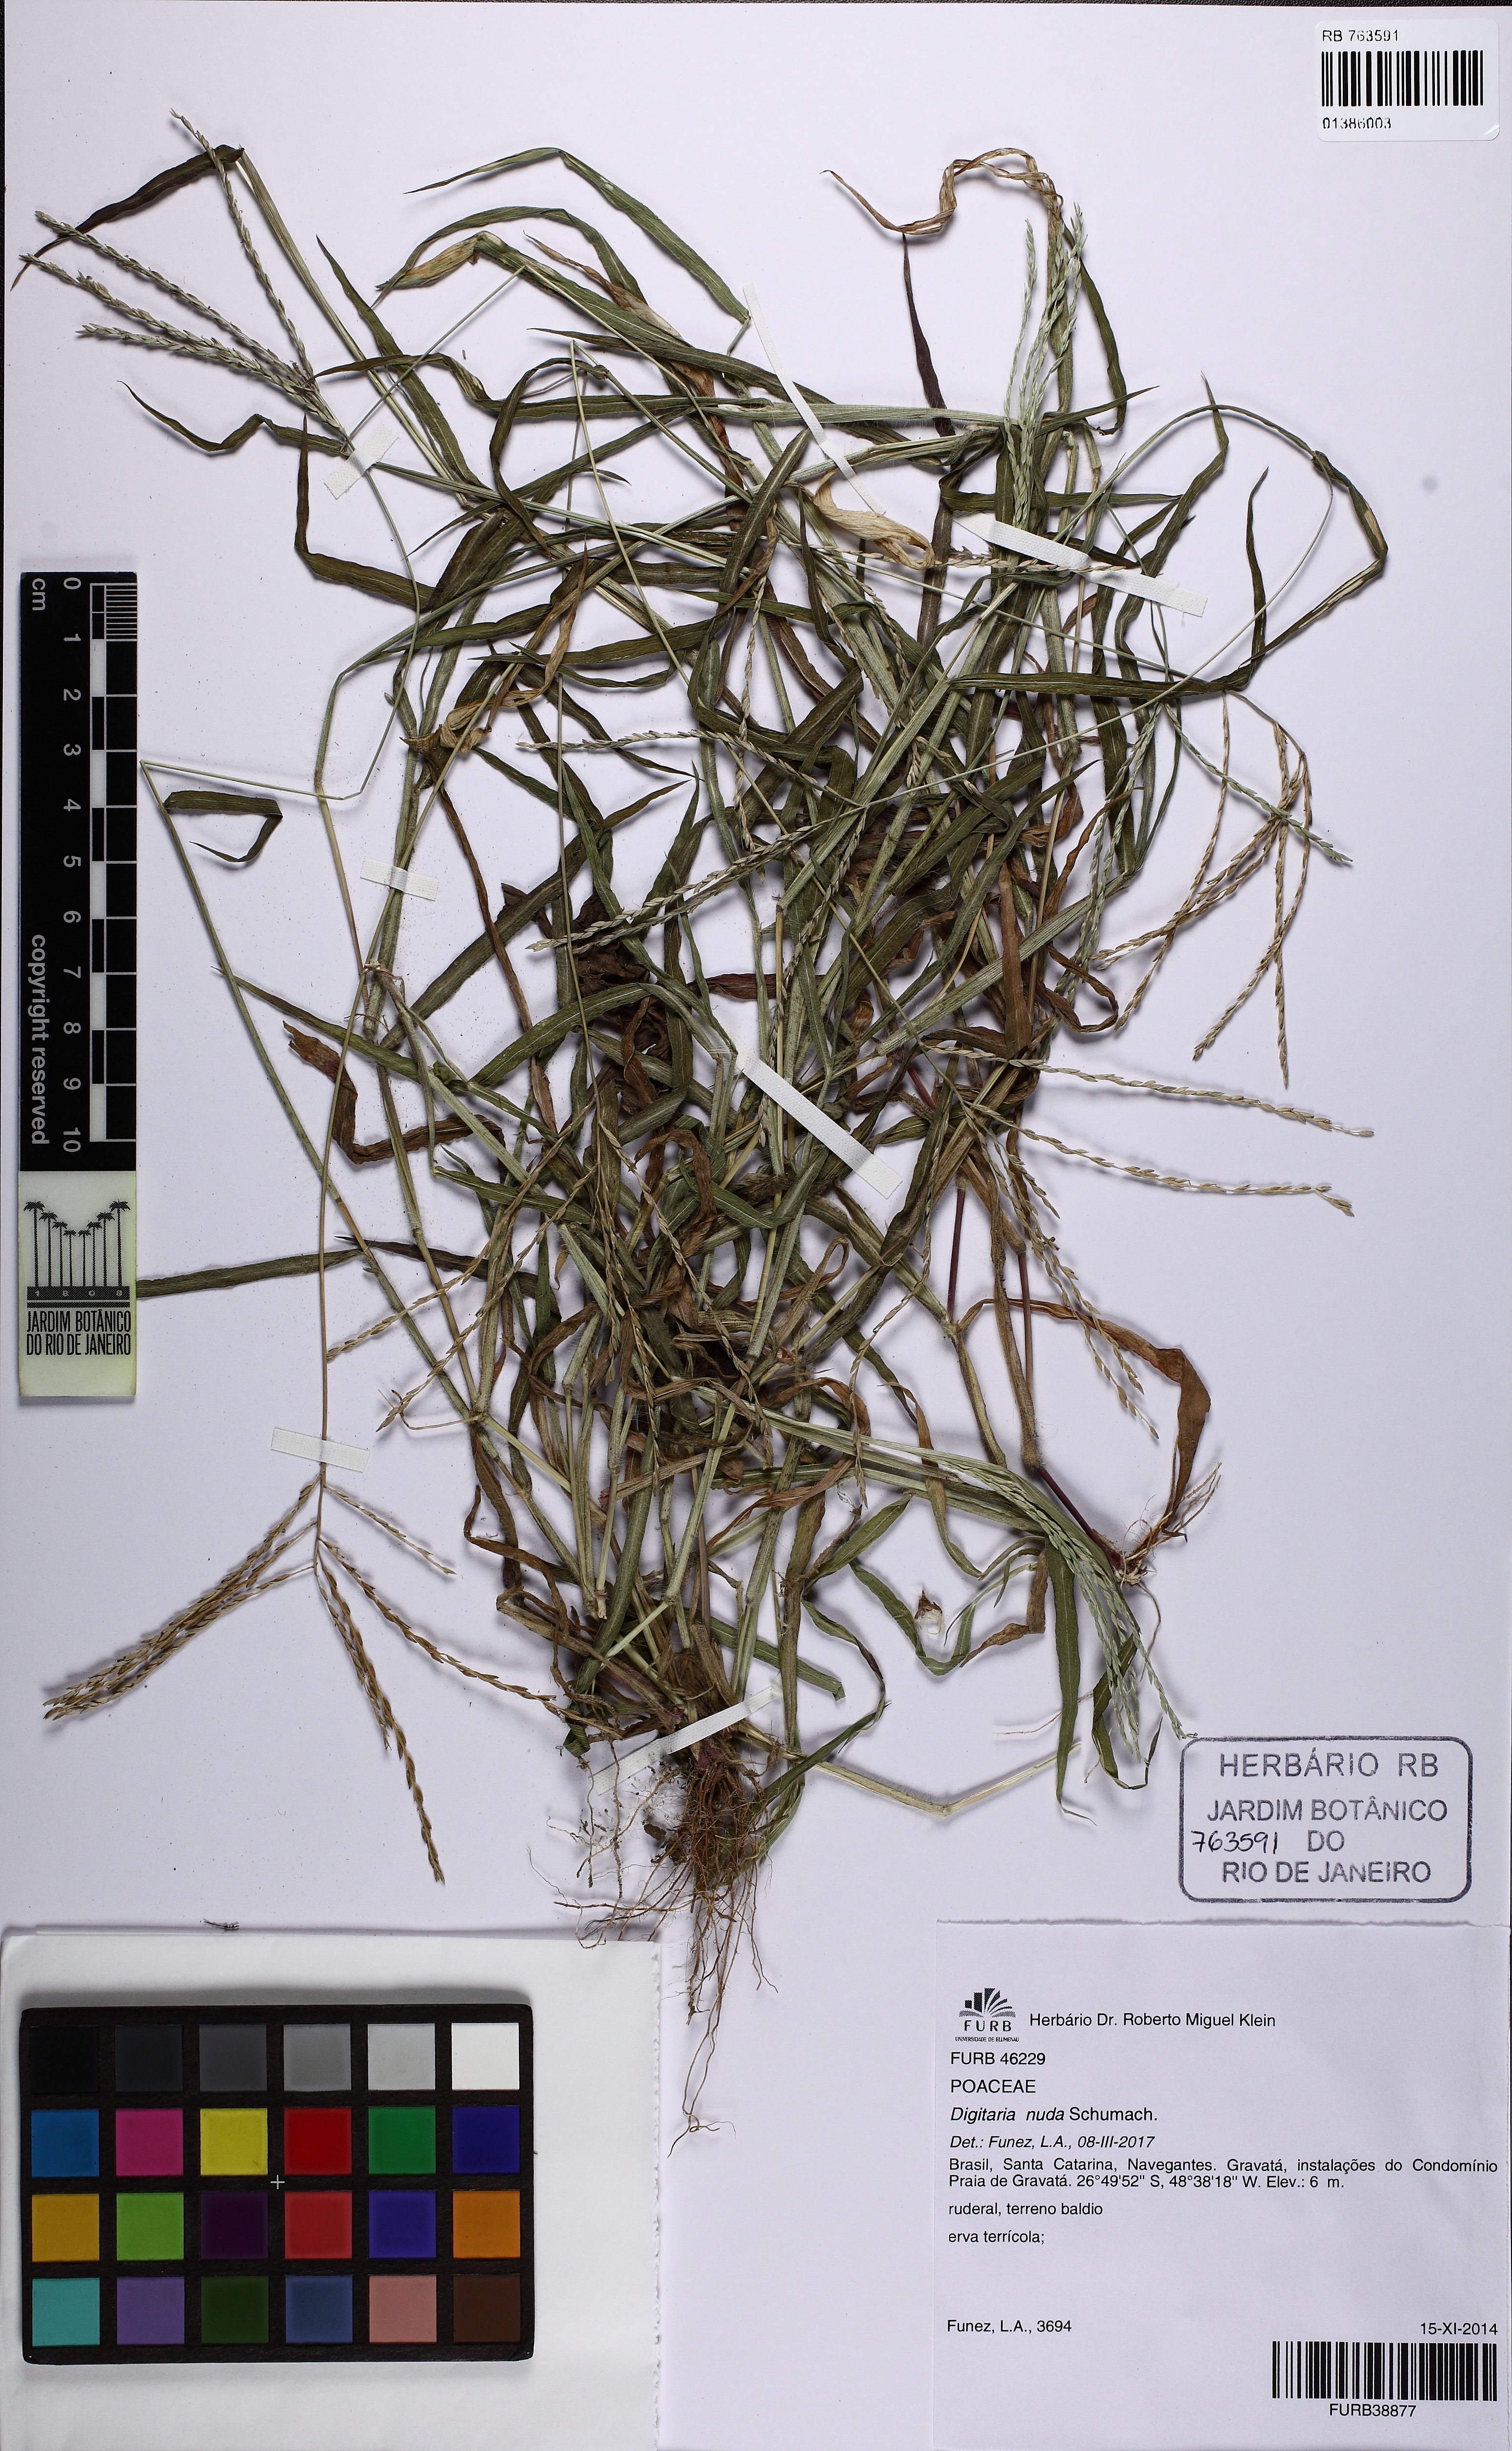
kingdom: Plantae
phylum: Tracheophyta
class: Liliopsida
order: Poales
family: Poaceae
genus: Digitaria
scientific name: Digitaria nuda
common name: Naked crabgrass
